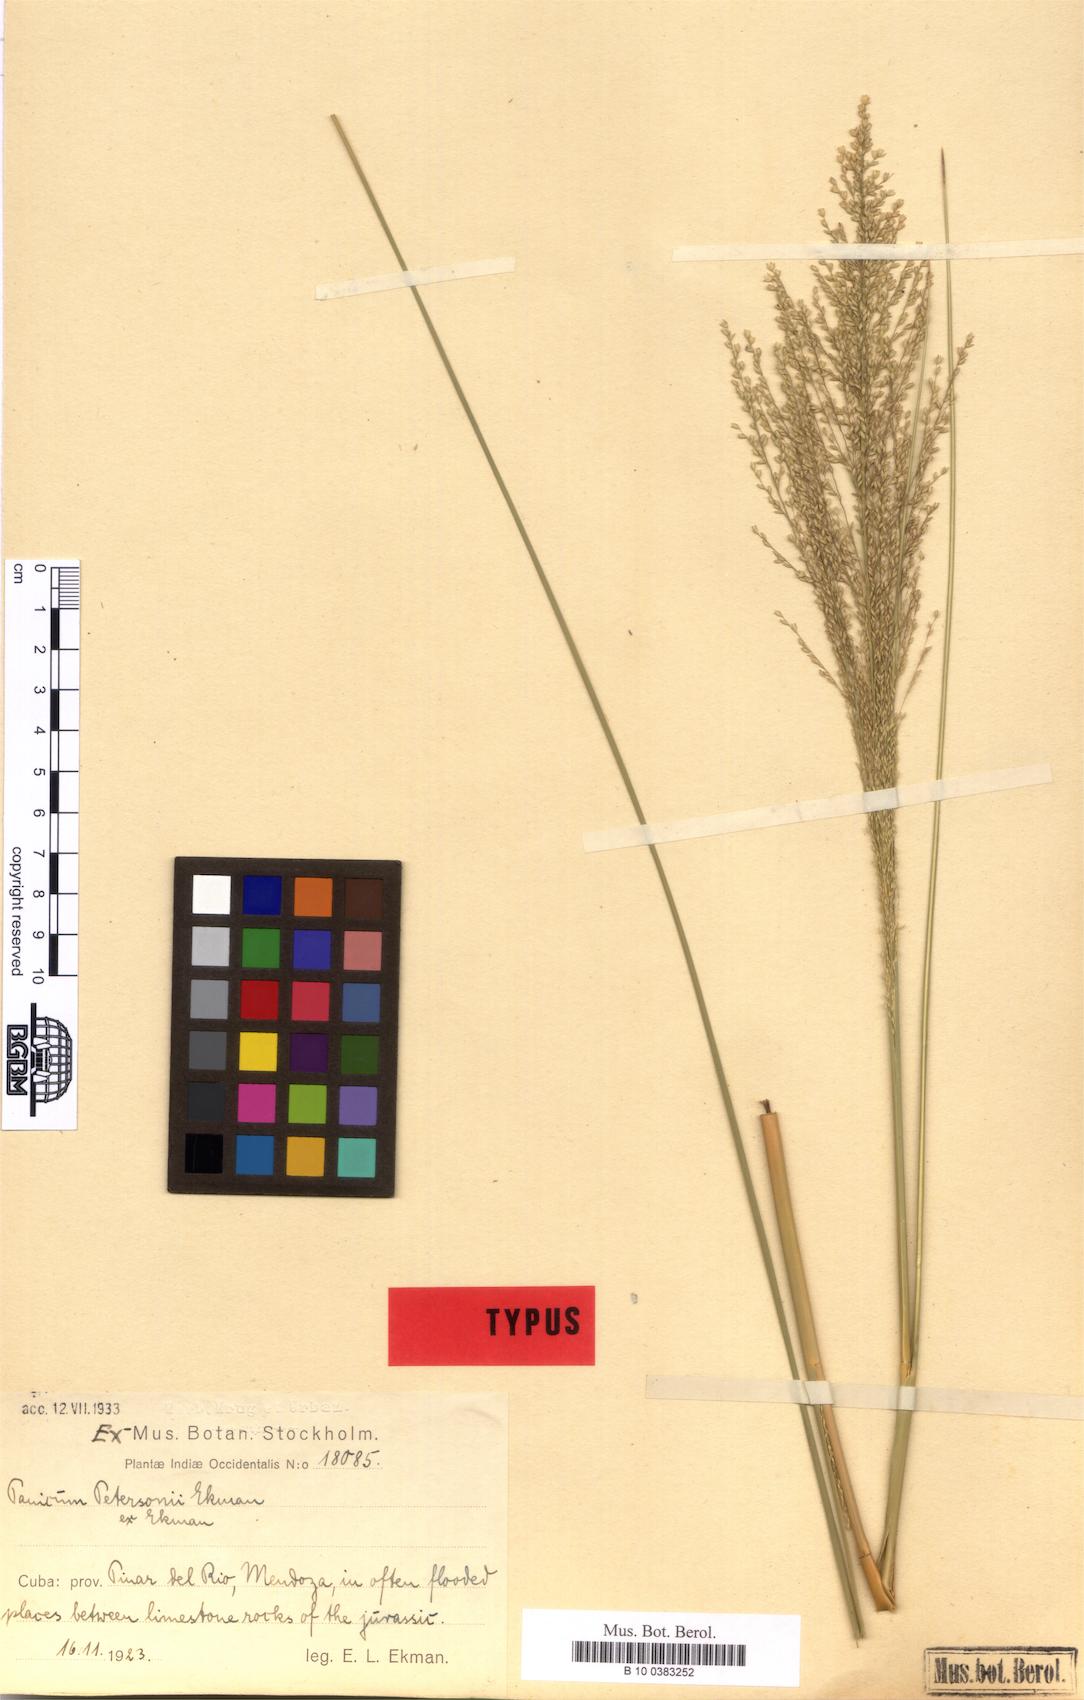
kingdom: Plantae
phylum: Tracheophyta
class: Liliopsida
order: Poales
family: Poaceae
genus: Coleataenia
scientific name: Coleataenia petersonii
